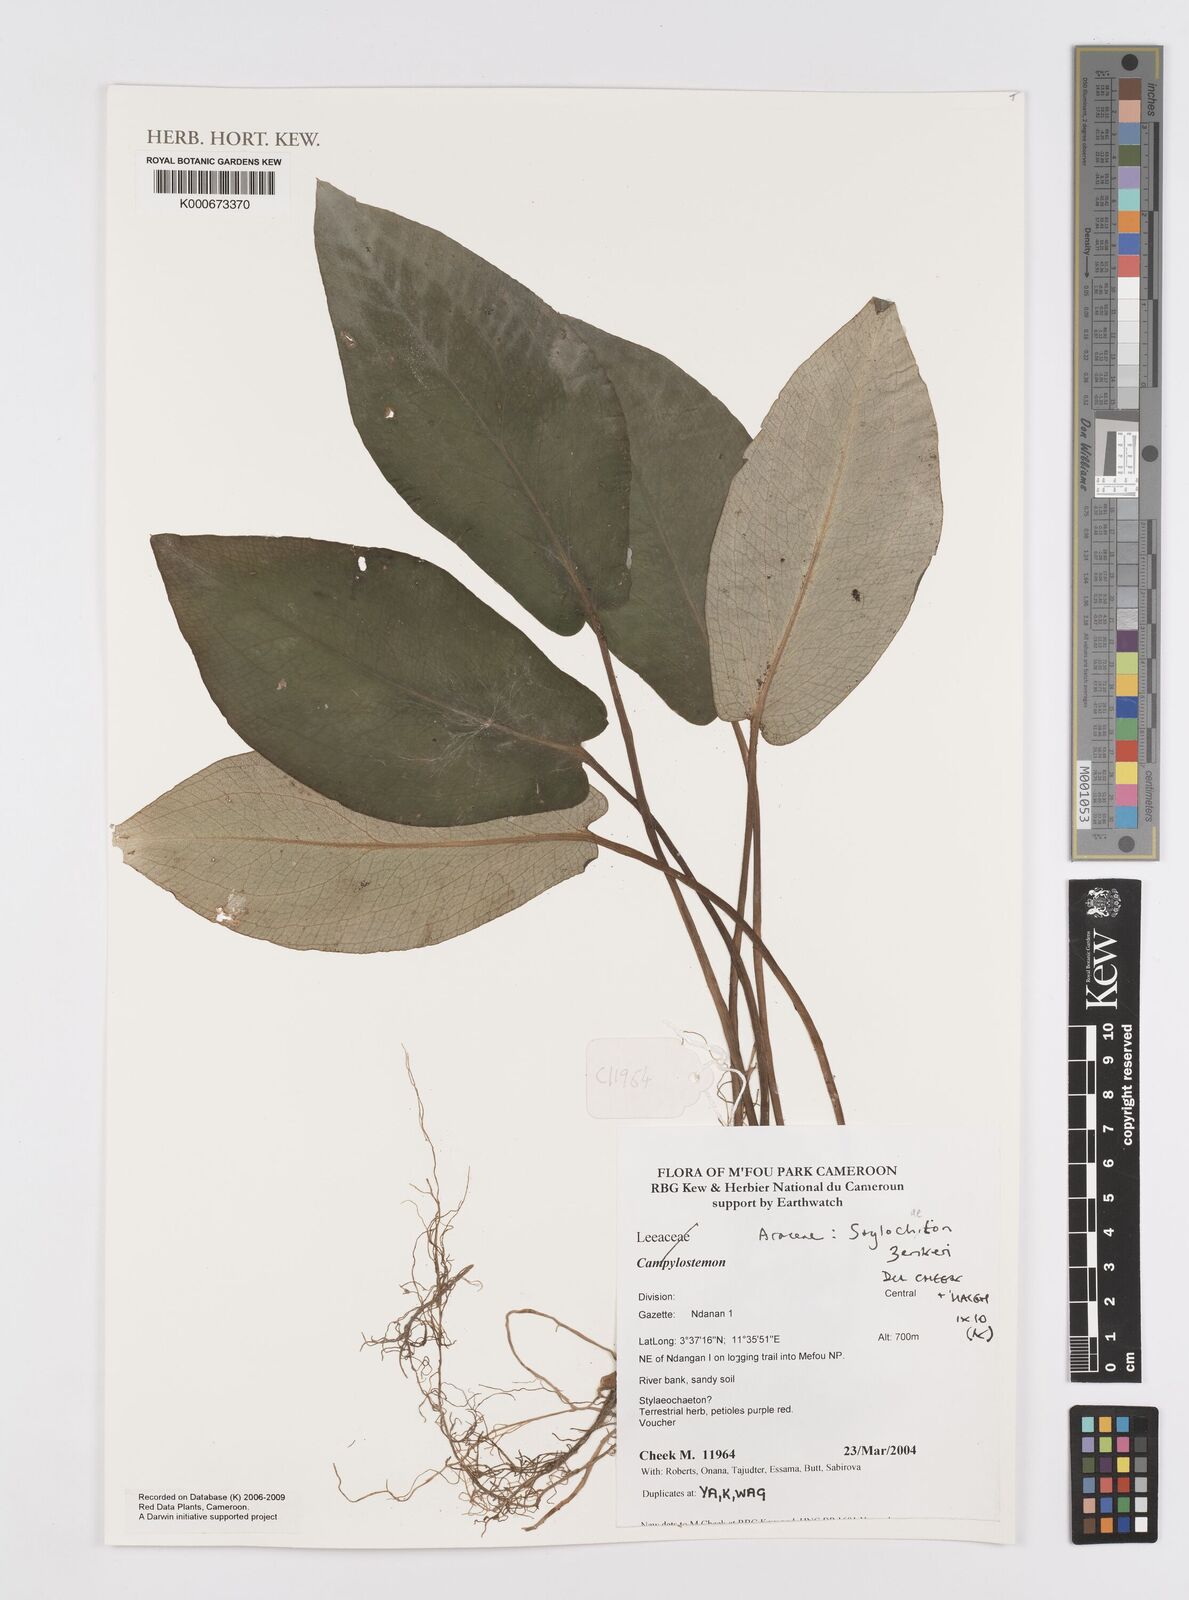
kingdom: Plantae
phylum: Tracheophyta
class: Liliopsida
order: Alismatales
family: Araceae
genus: Stylochaeton
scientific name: Stylochaeton zenkeri
